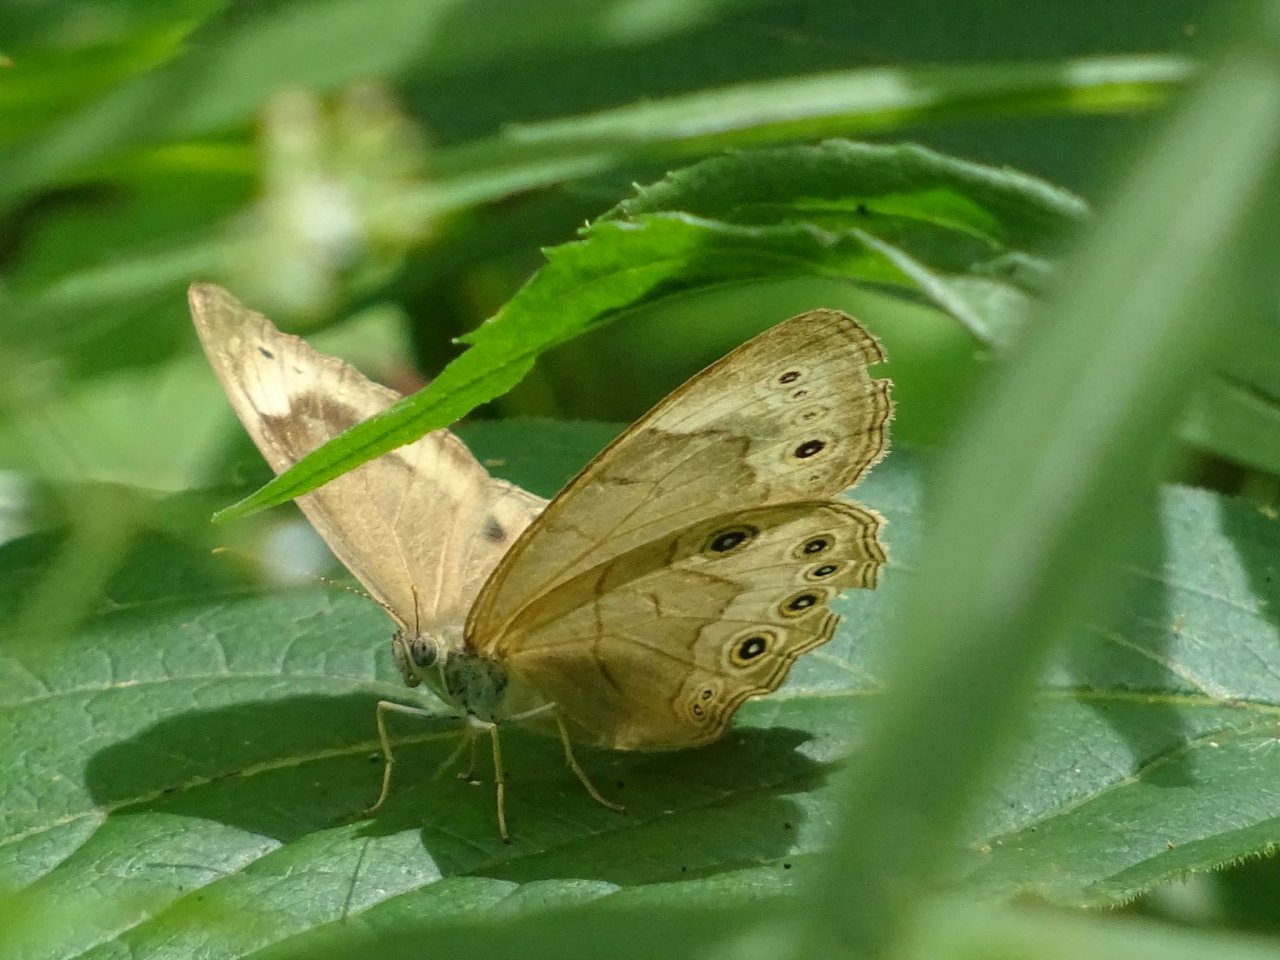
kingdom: Animalia
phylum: Arthropoda
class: Insecta
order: Lepidoptera
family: Nymphalidae
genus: Lethe
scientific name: Lethe eurydice
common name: Appalachian Eyed Brown
